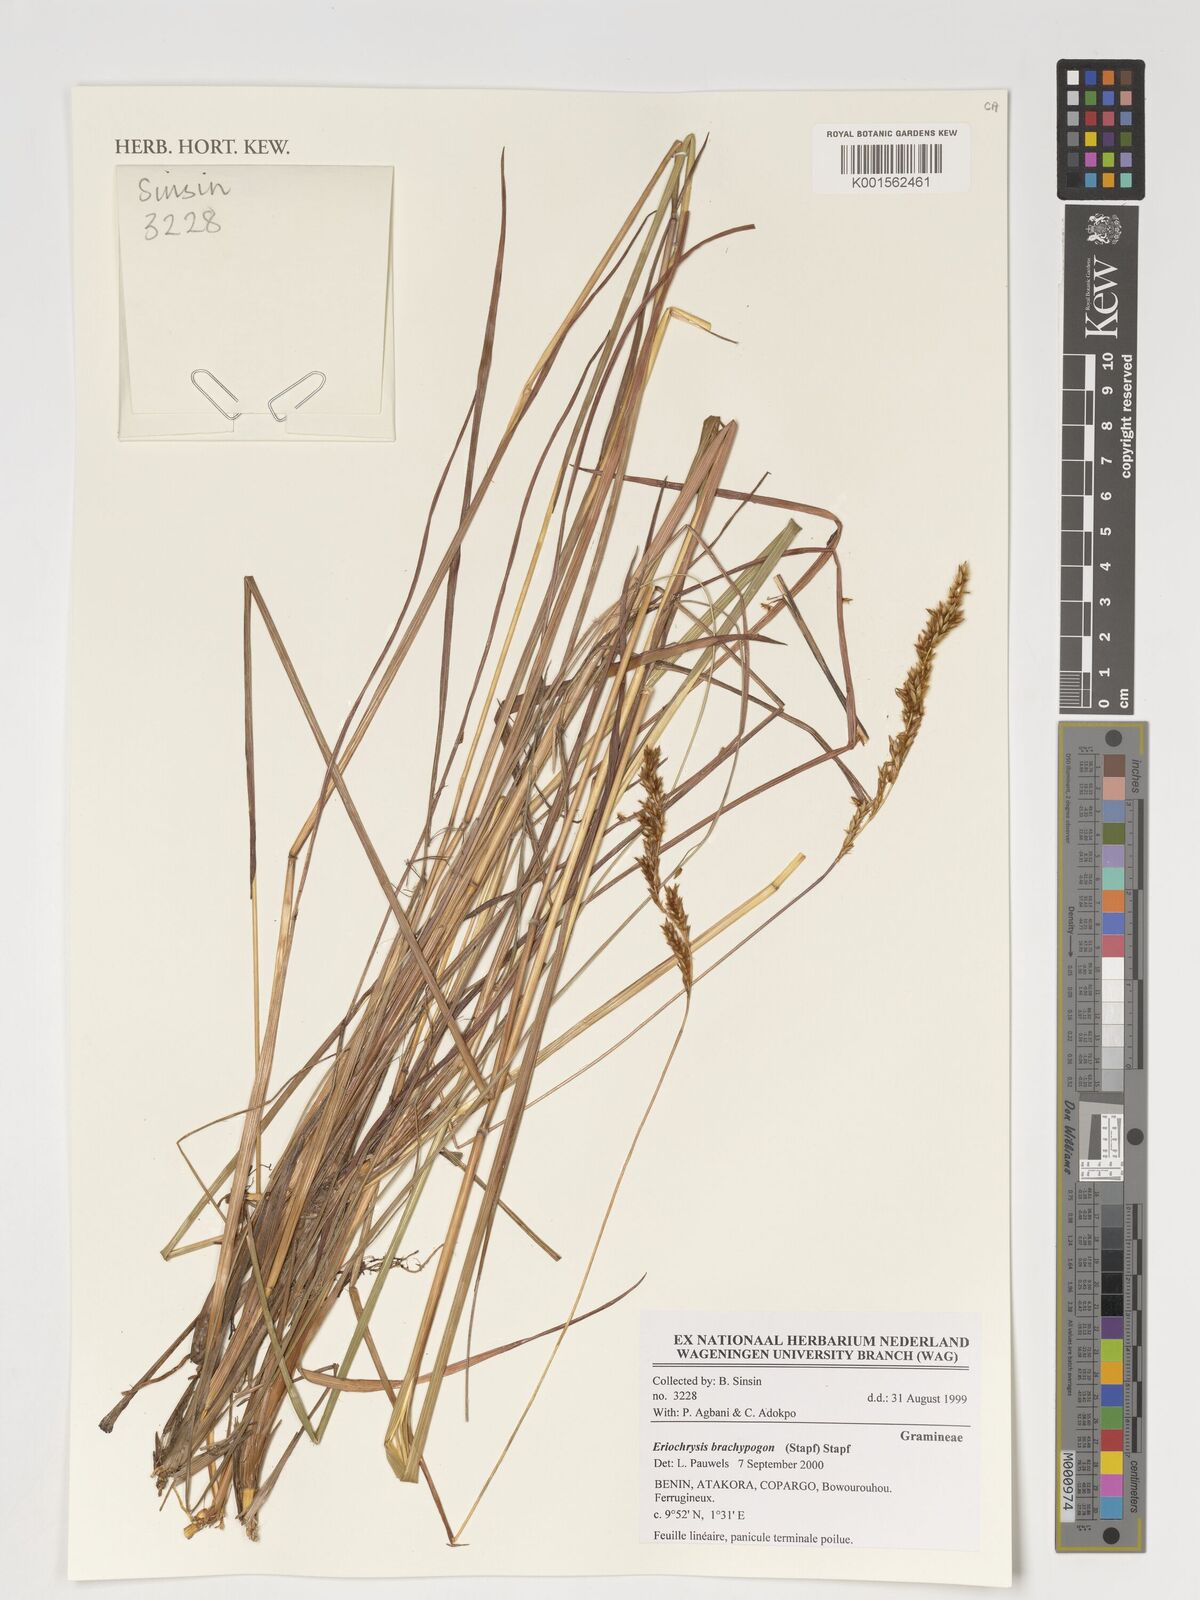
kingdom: Plantae
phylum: Tracheophyta
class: Liliopsida
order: Poales
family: Poaceae
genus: Eriochrysis
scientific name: Eriochrysis brachypogon
